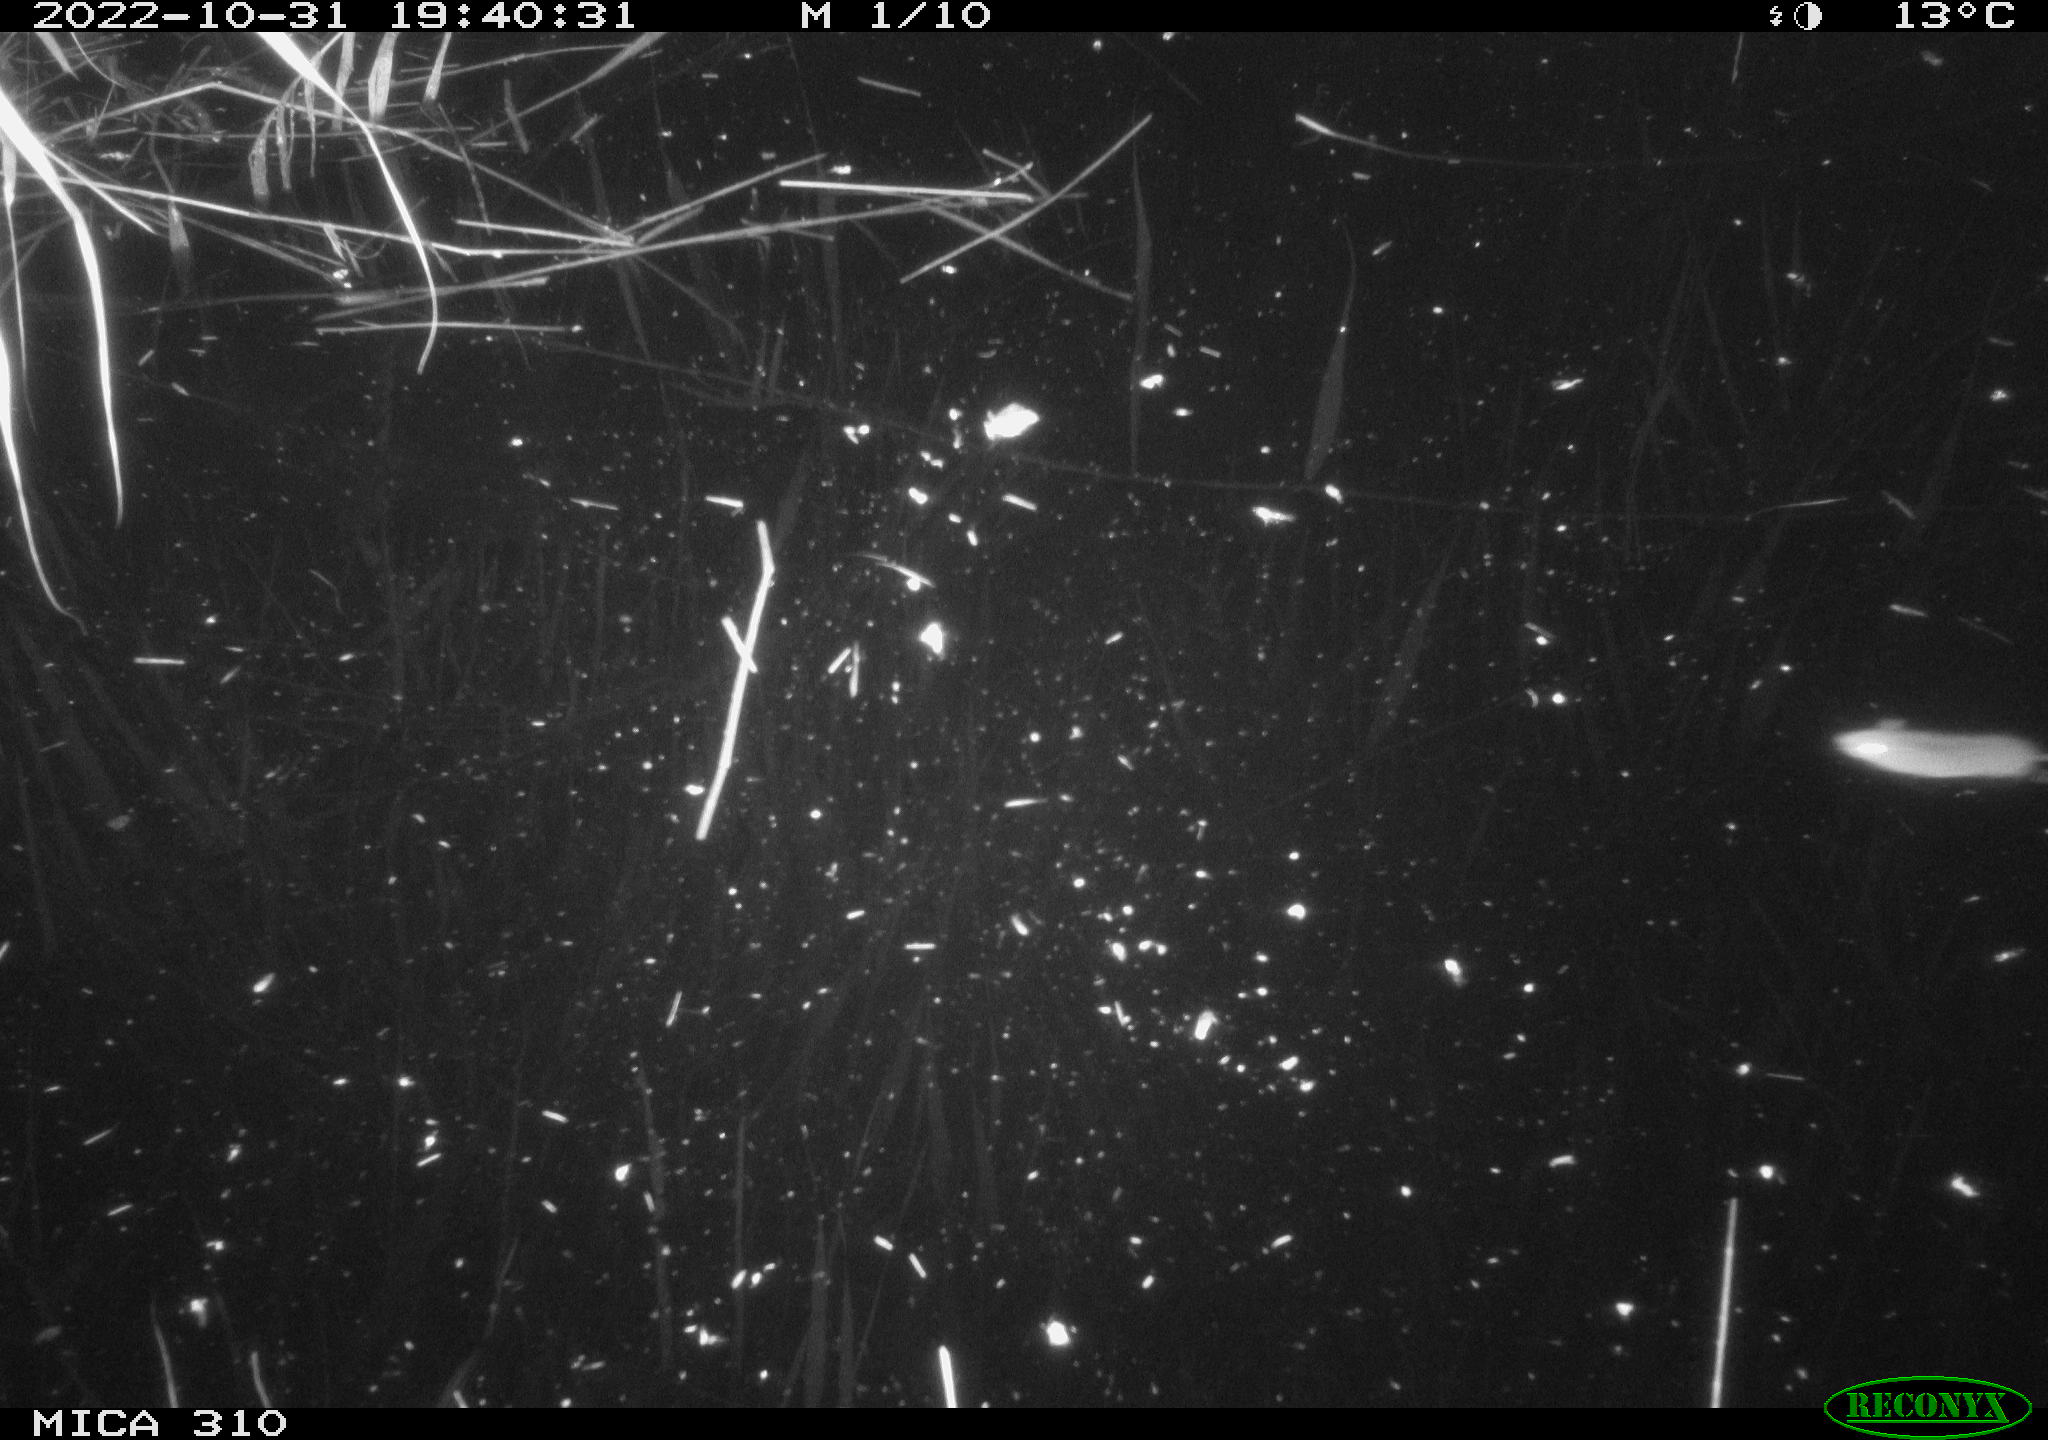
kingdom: Animalia
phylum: Chordata
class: Mammalia
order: Rodentia
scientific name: Rodentia
